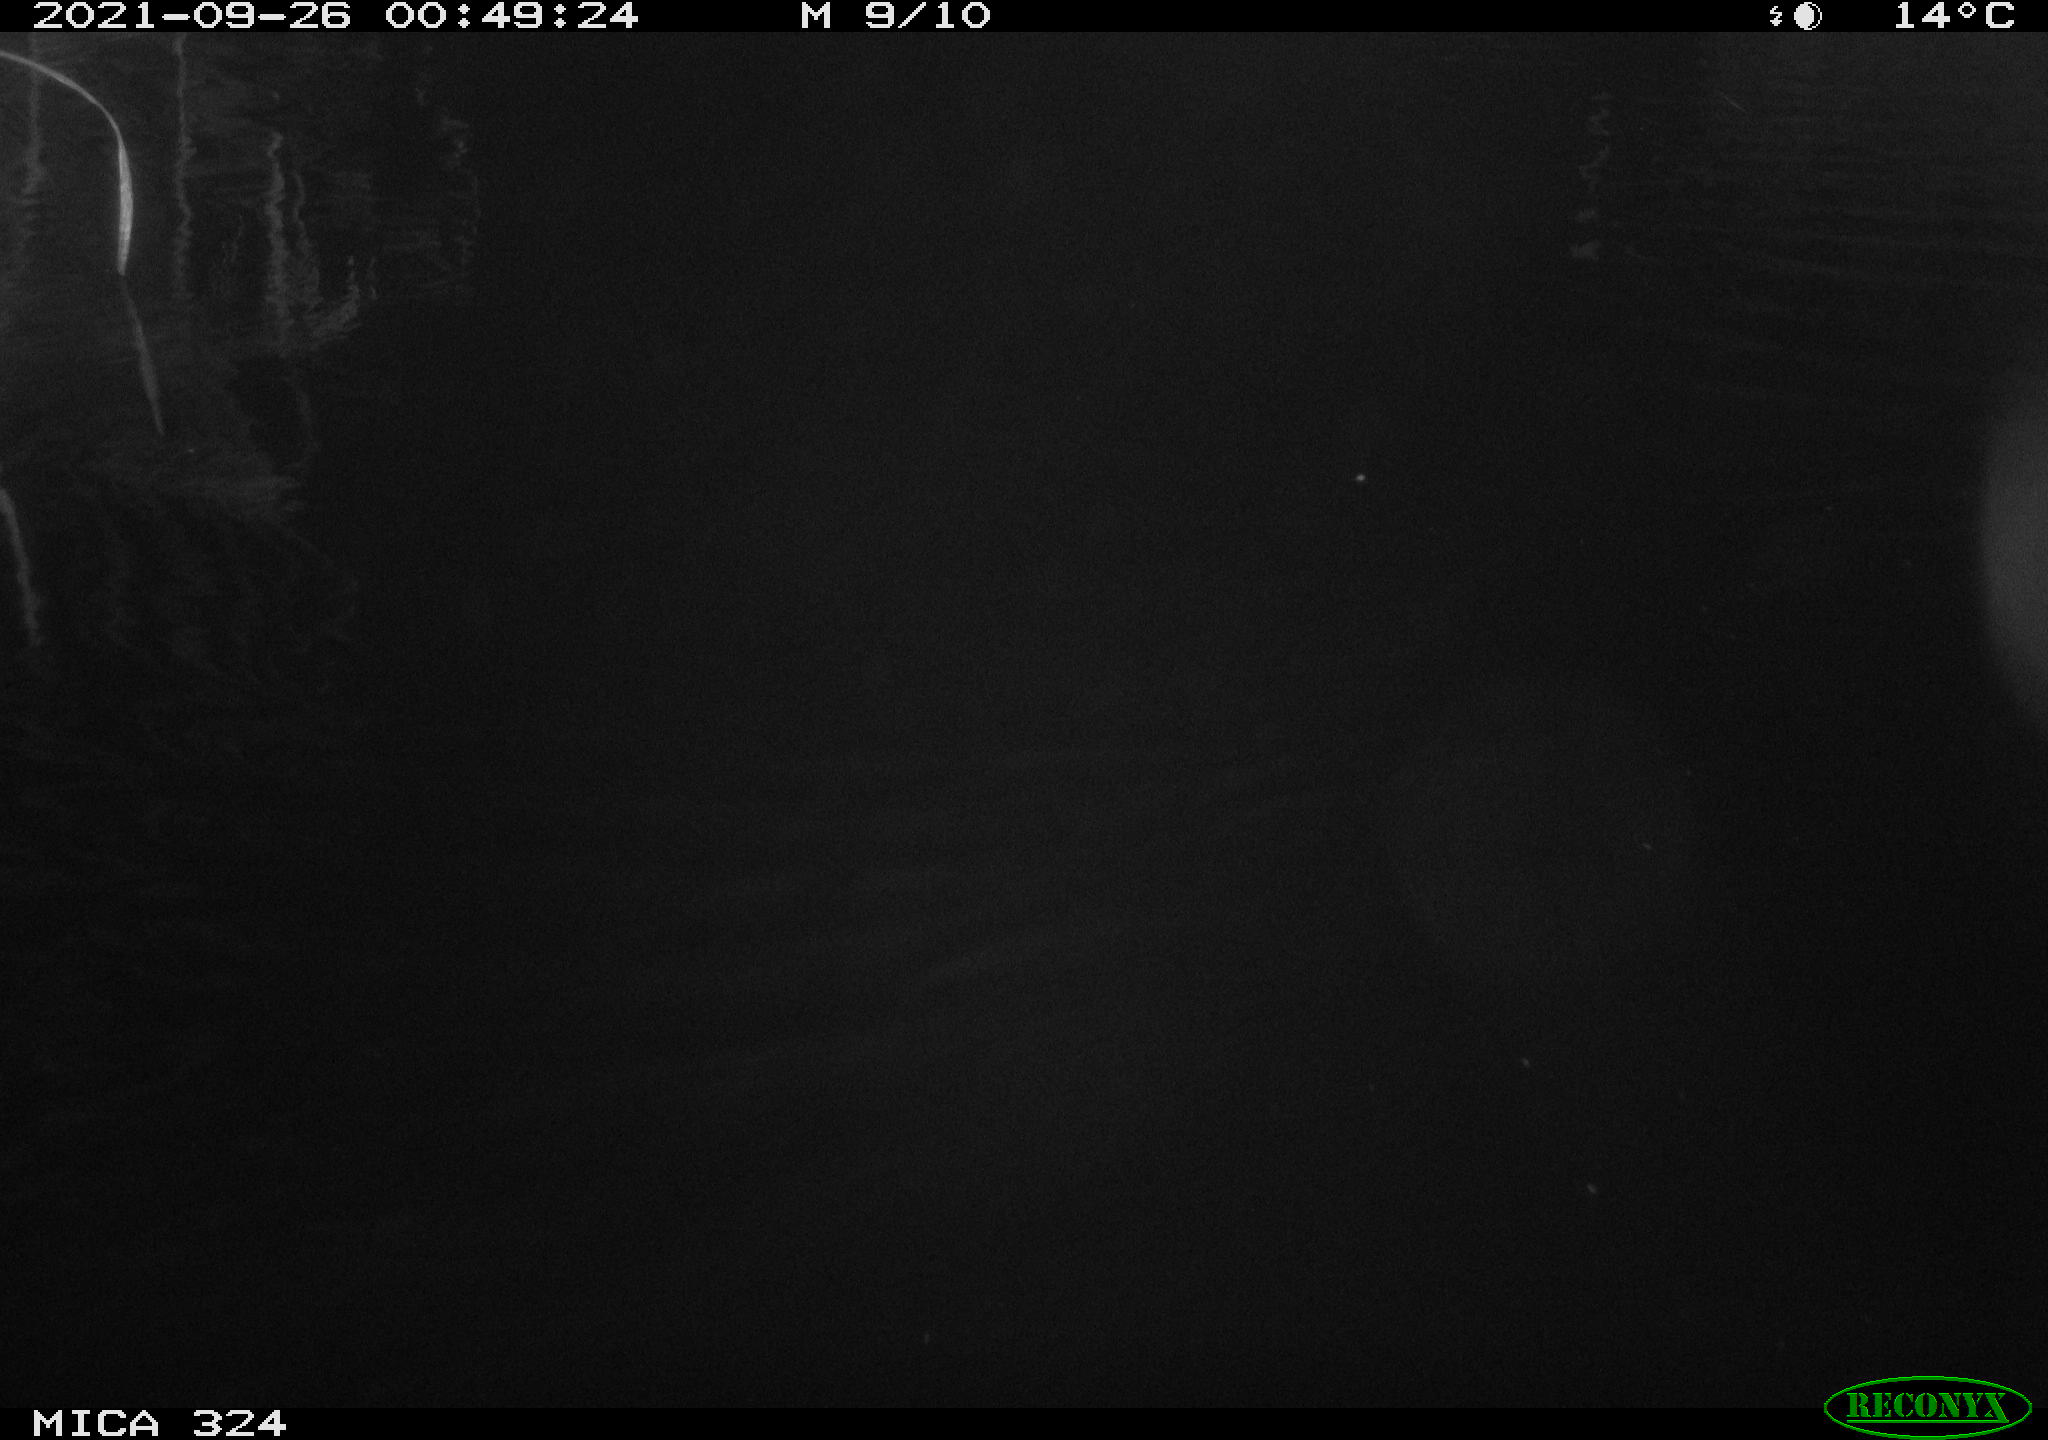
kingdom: Animalia
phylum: Chordata
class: Mammalia
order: Rodentia
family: Cricetidae
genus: Ondatra
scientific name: Ondatra zibethicus
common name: Muskrat
